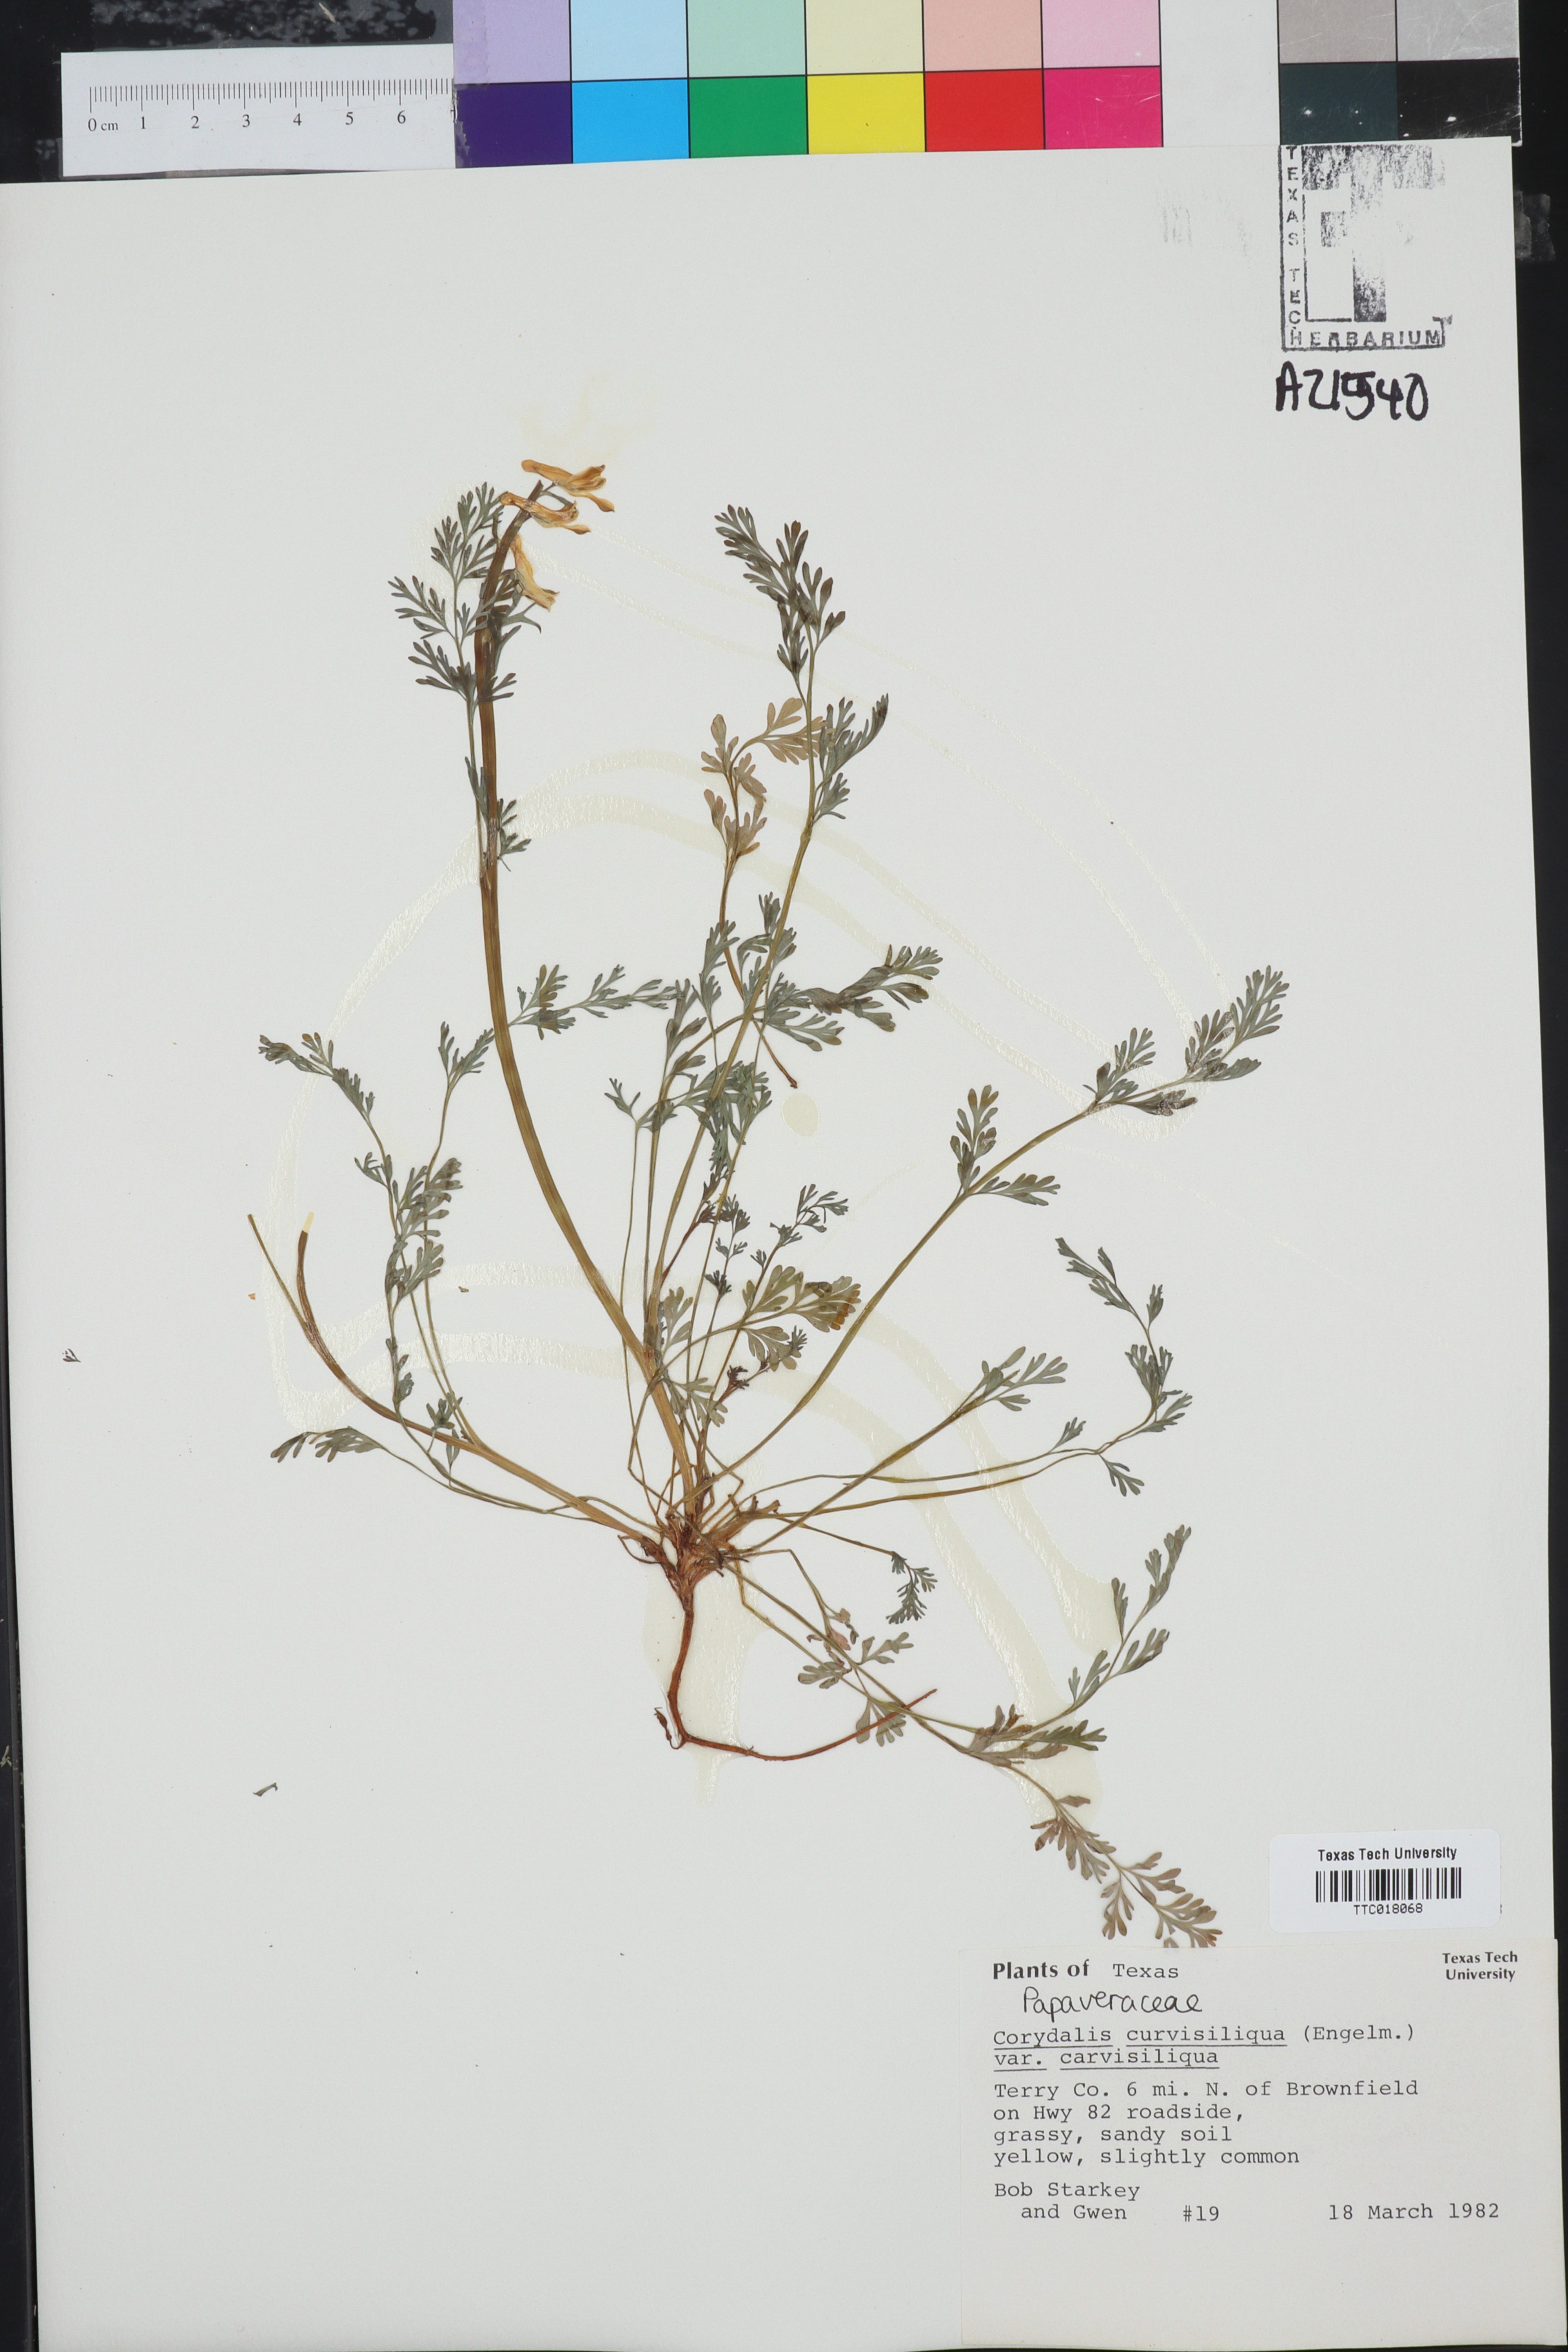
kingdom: Plantae
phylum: Tracheophyta
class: Magnoliopsida
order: Ranunculales
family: Papaveraceae
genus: Corydalis
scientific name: Corydalis curvisiliqua
